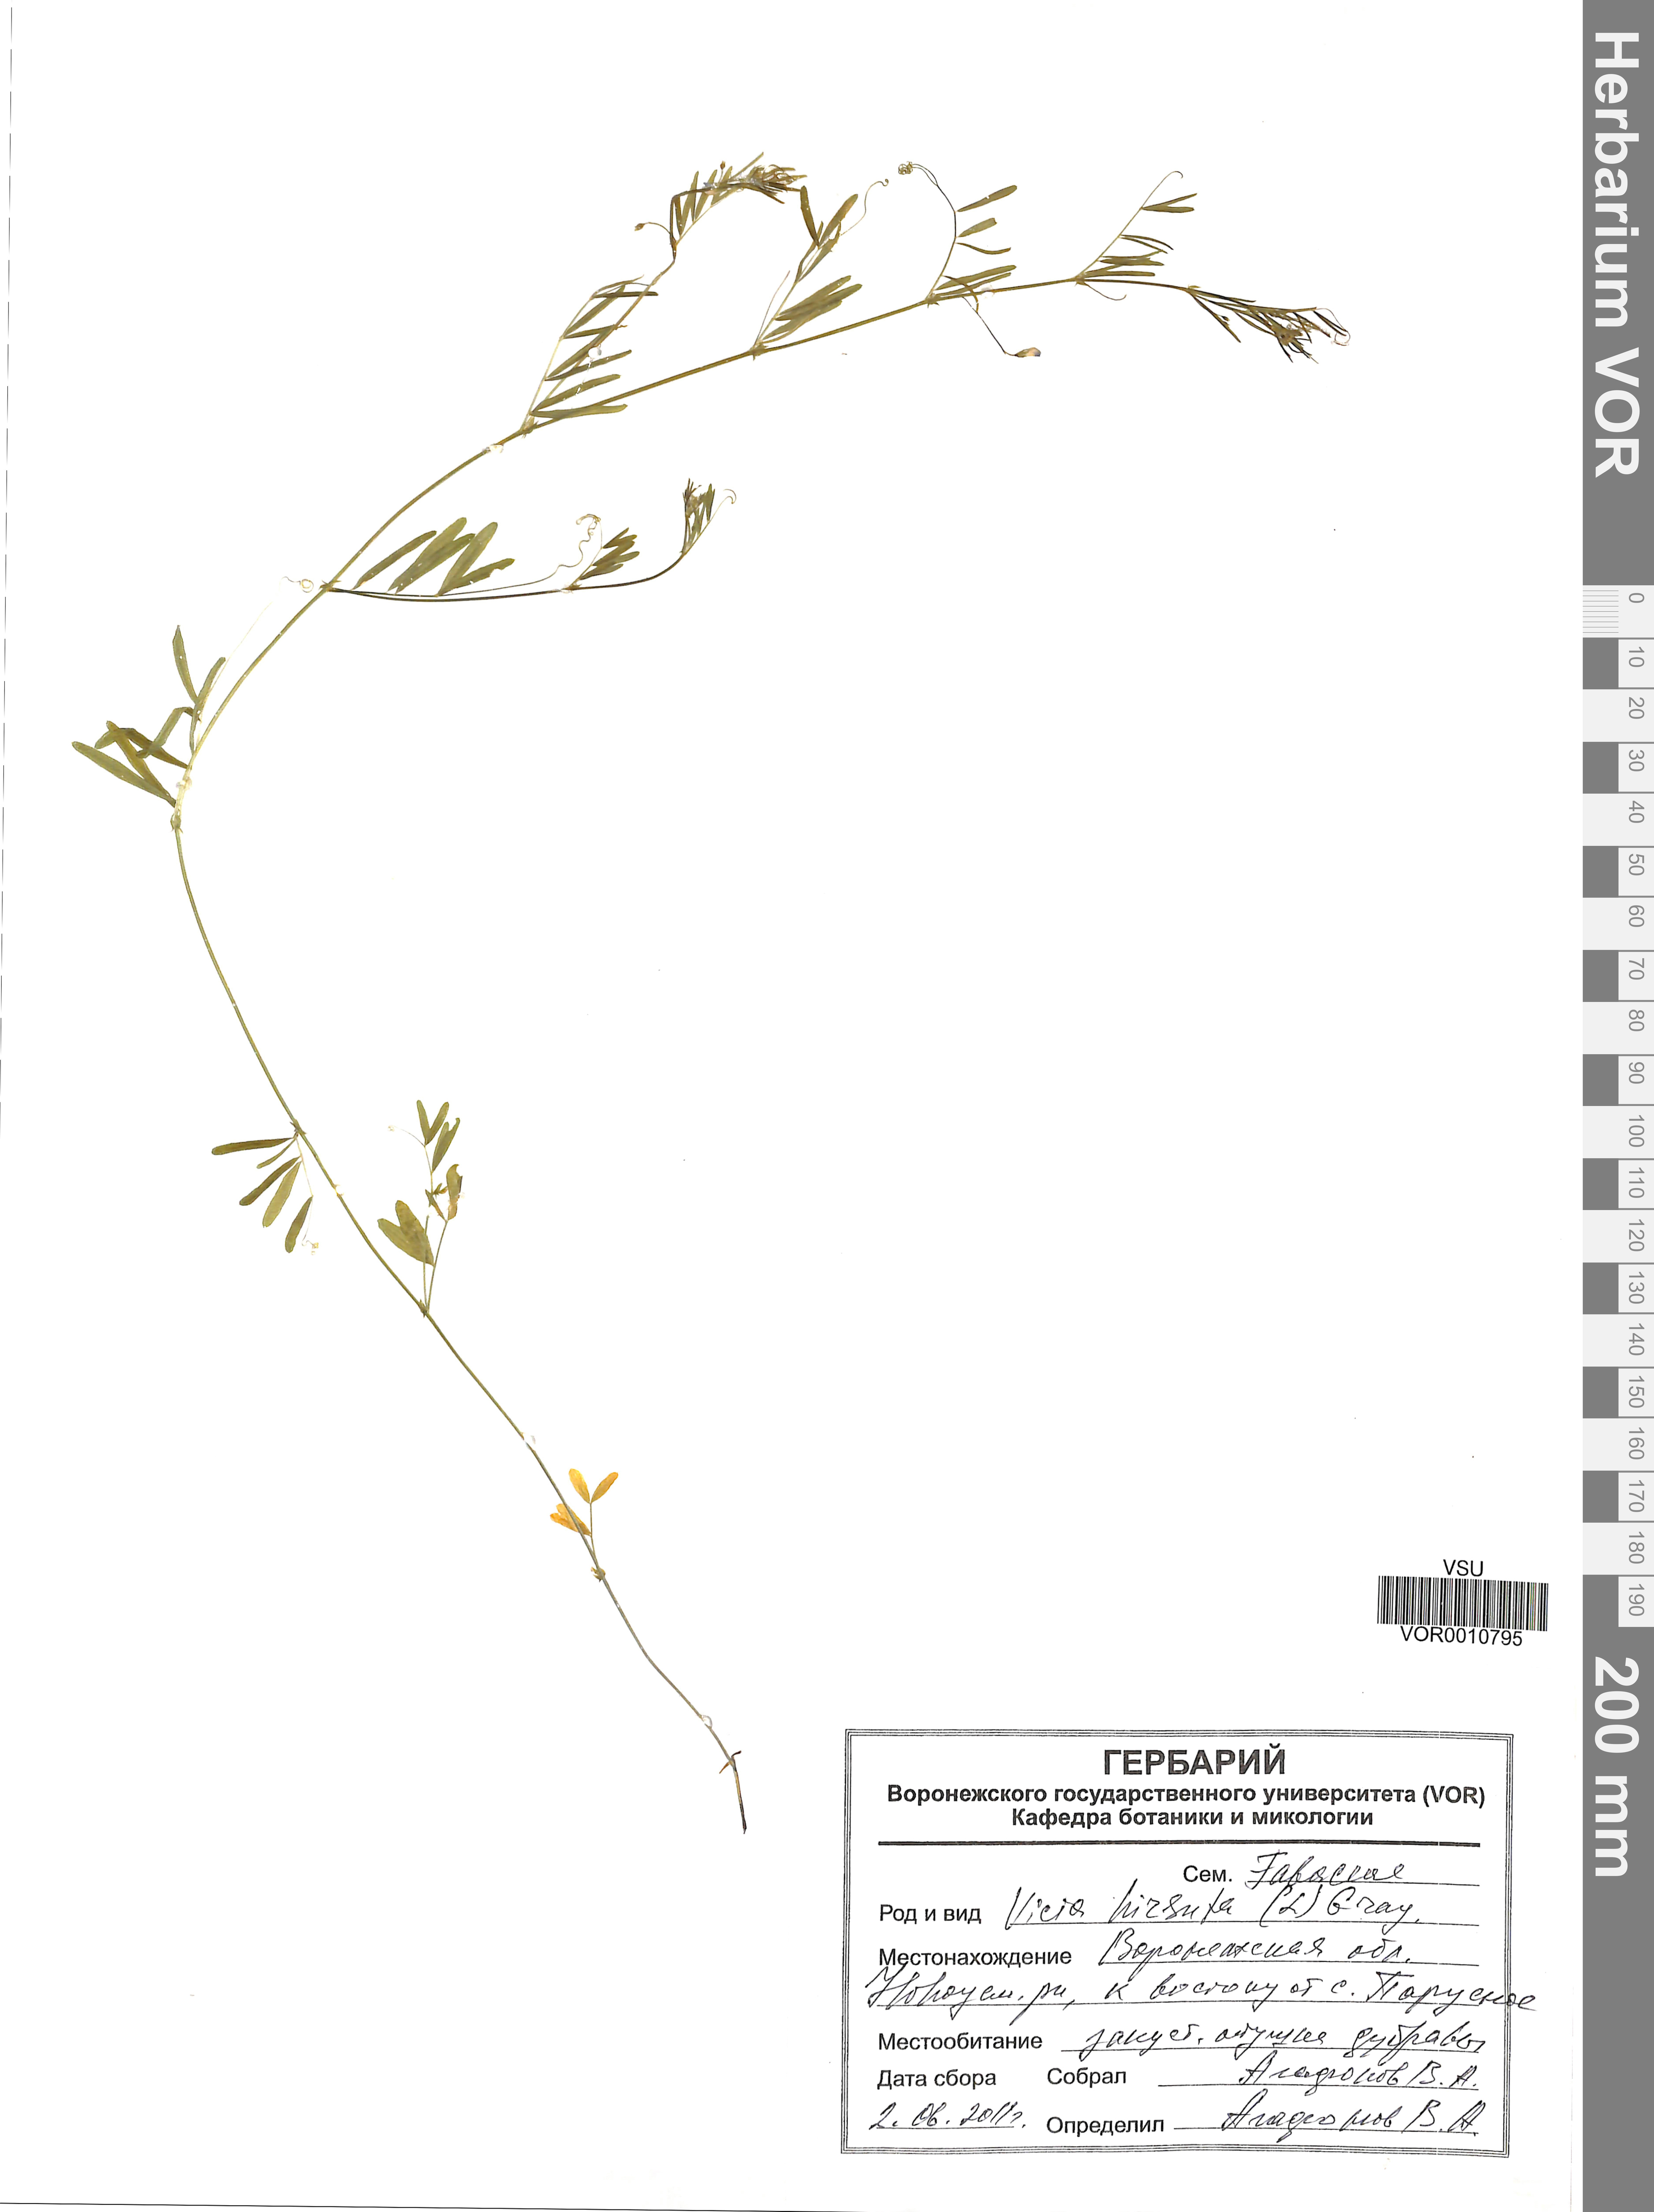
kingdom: Plantae
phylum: Tracheophyta
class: Magnoliopsida
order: Fabales
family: Fabaceae
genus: Vicia
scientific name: Vicia hirsuta
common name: Tiny vetch
